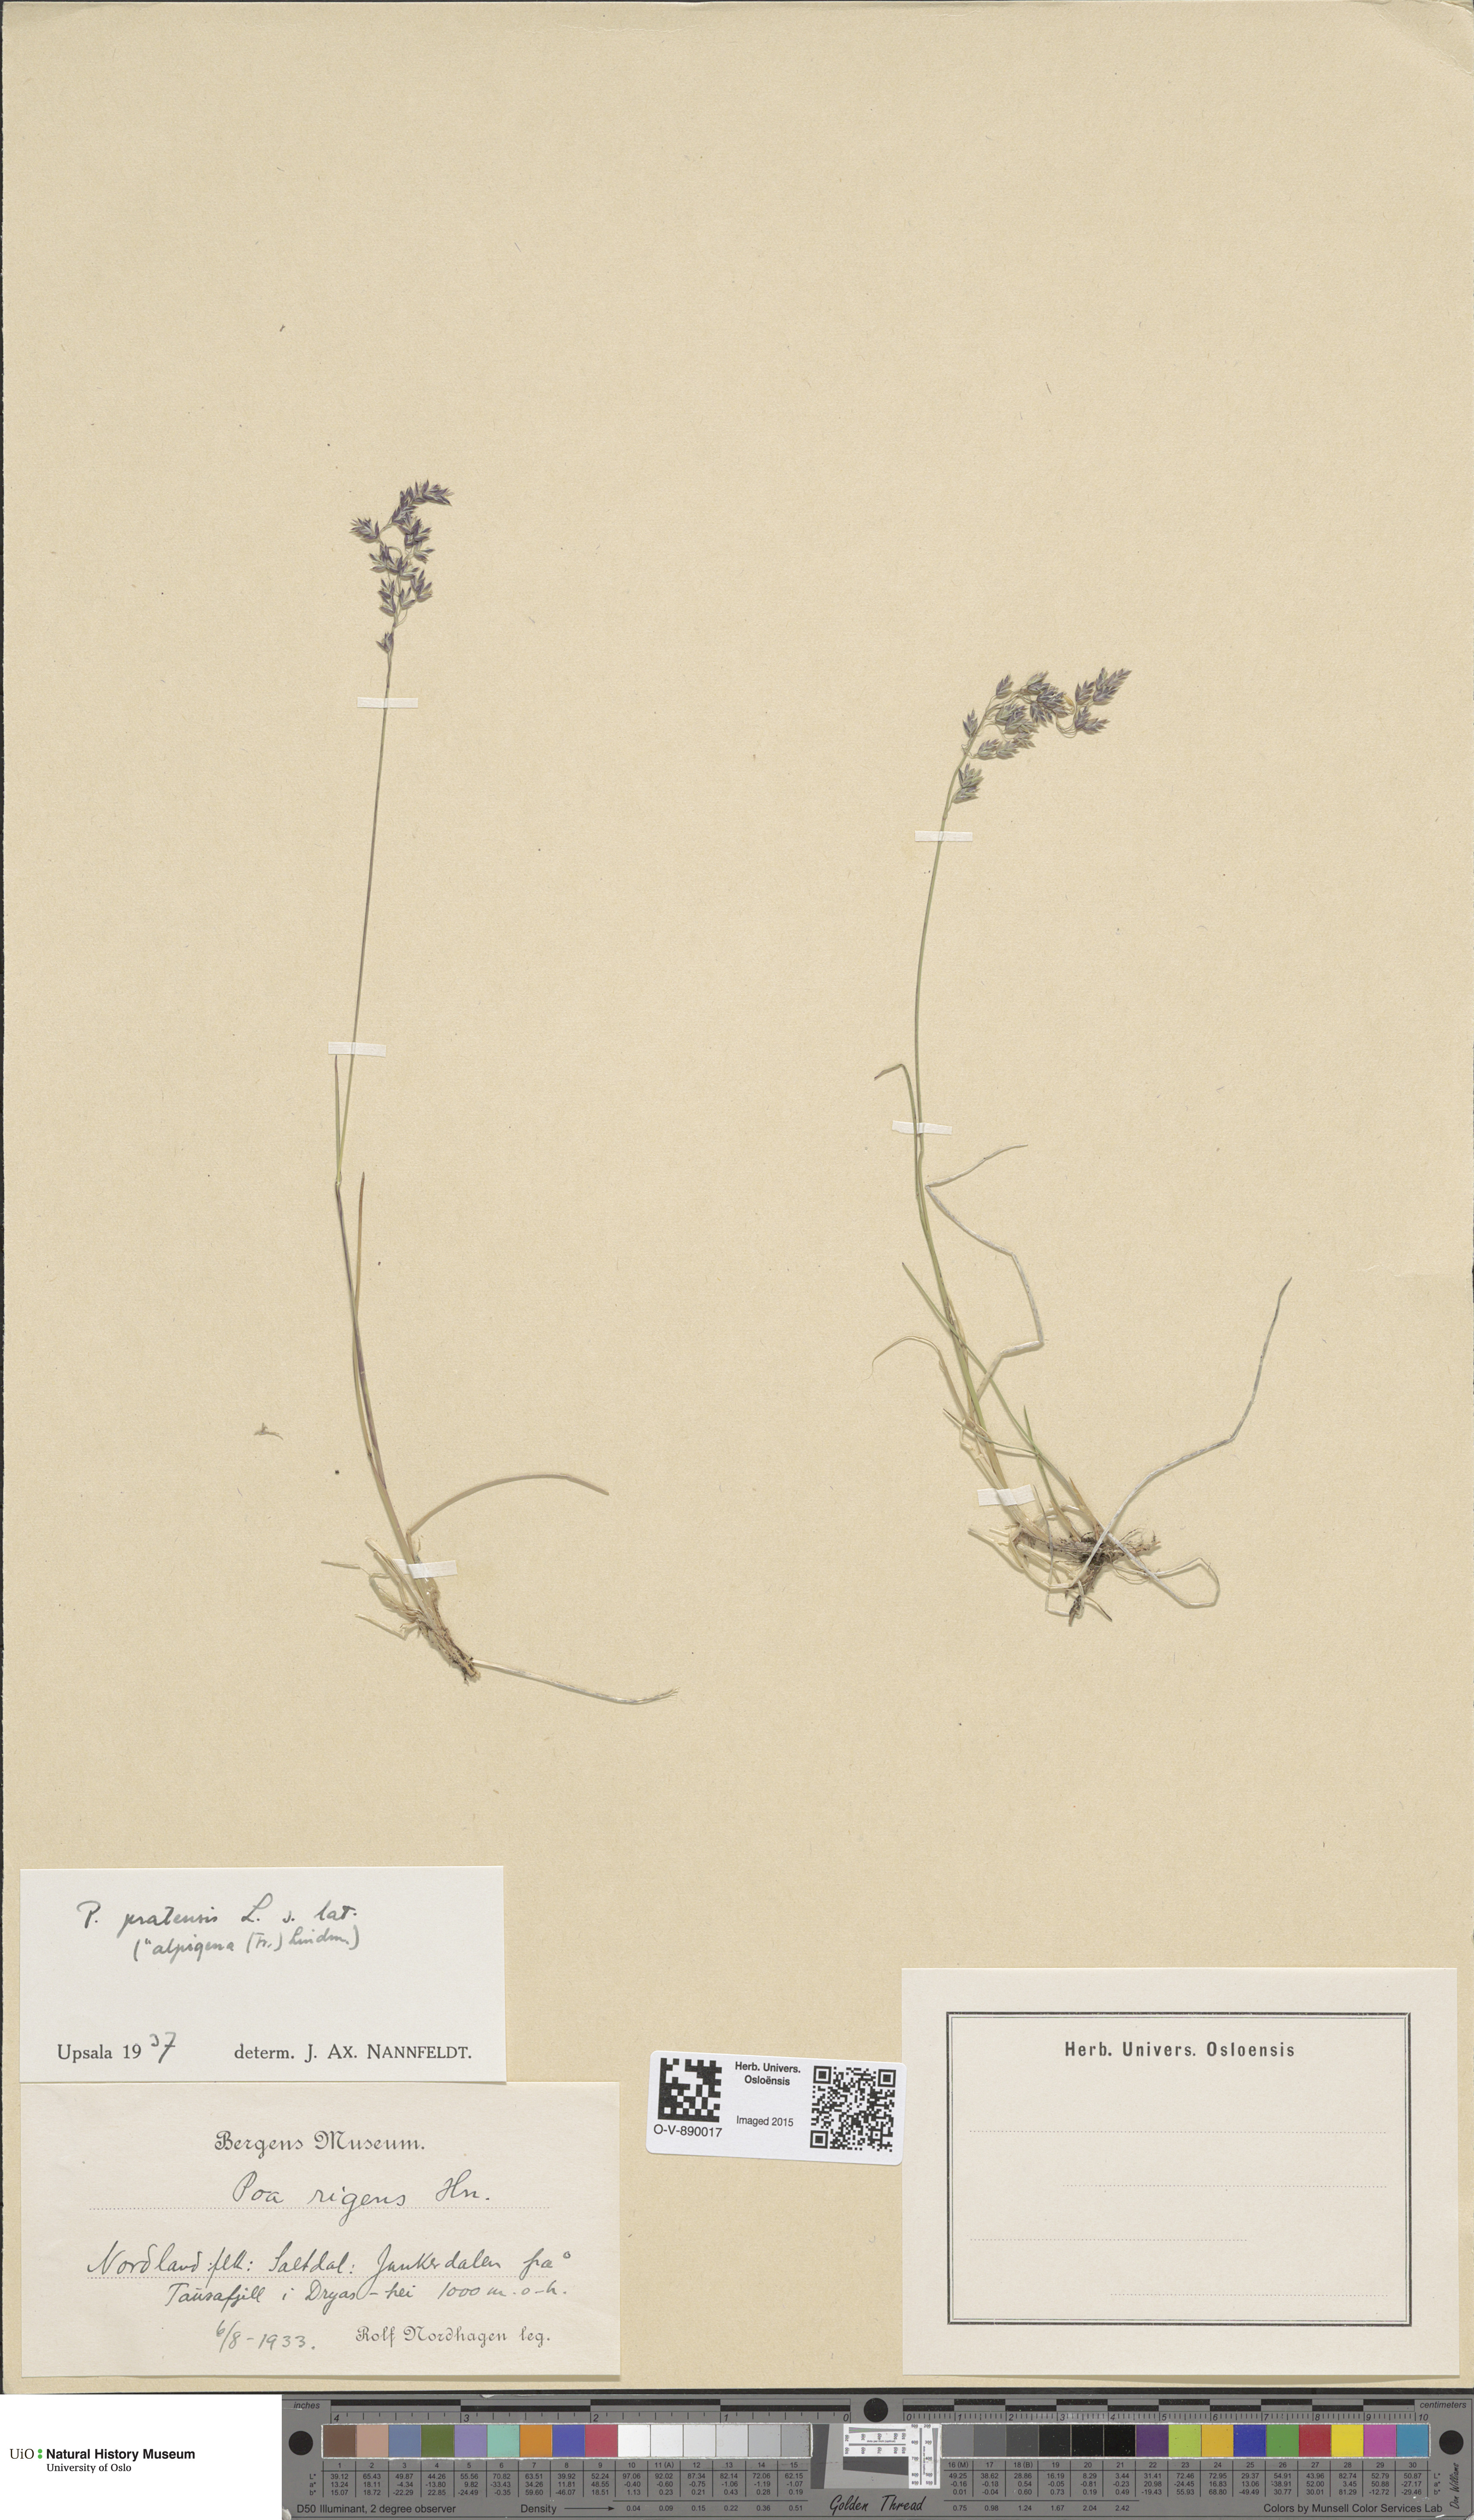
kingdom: Plantae
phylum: Tracheophyta
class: Liliopsida
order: Poales
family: Poaceae
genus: Poa
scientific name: Poa alpigena
